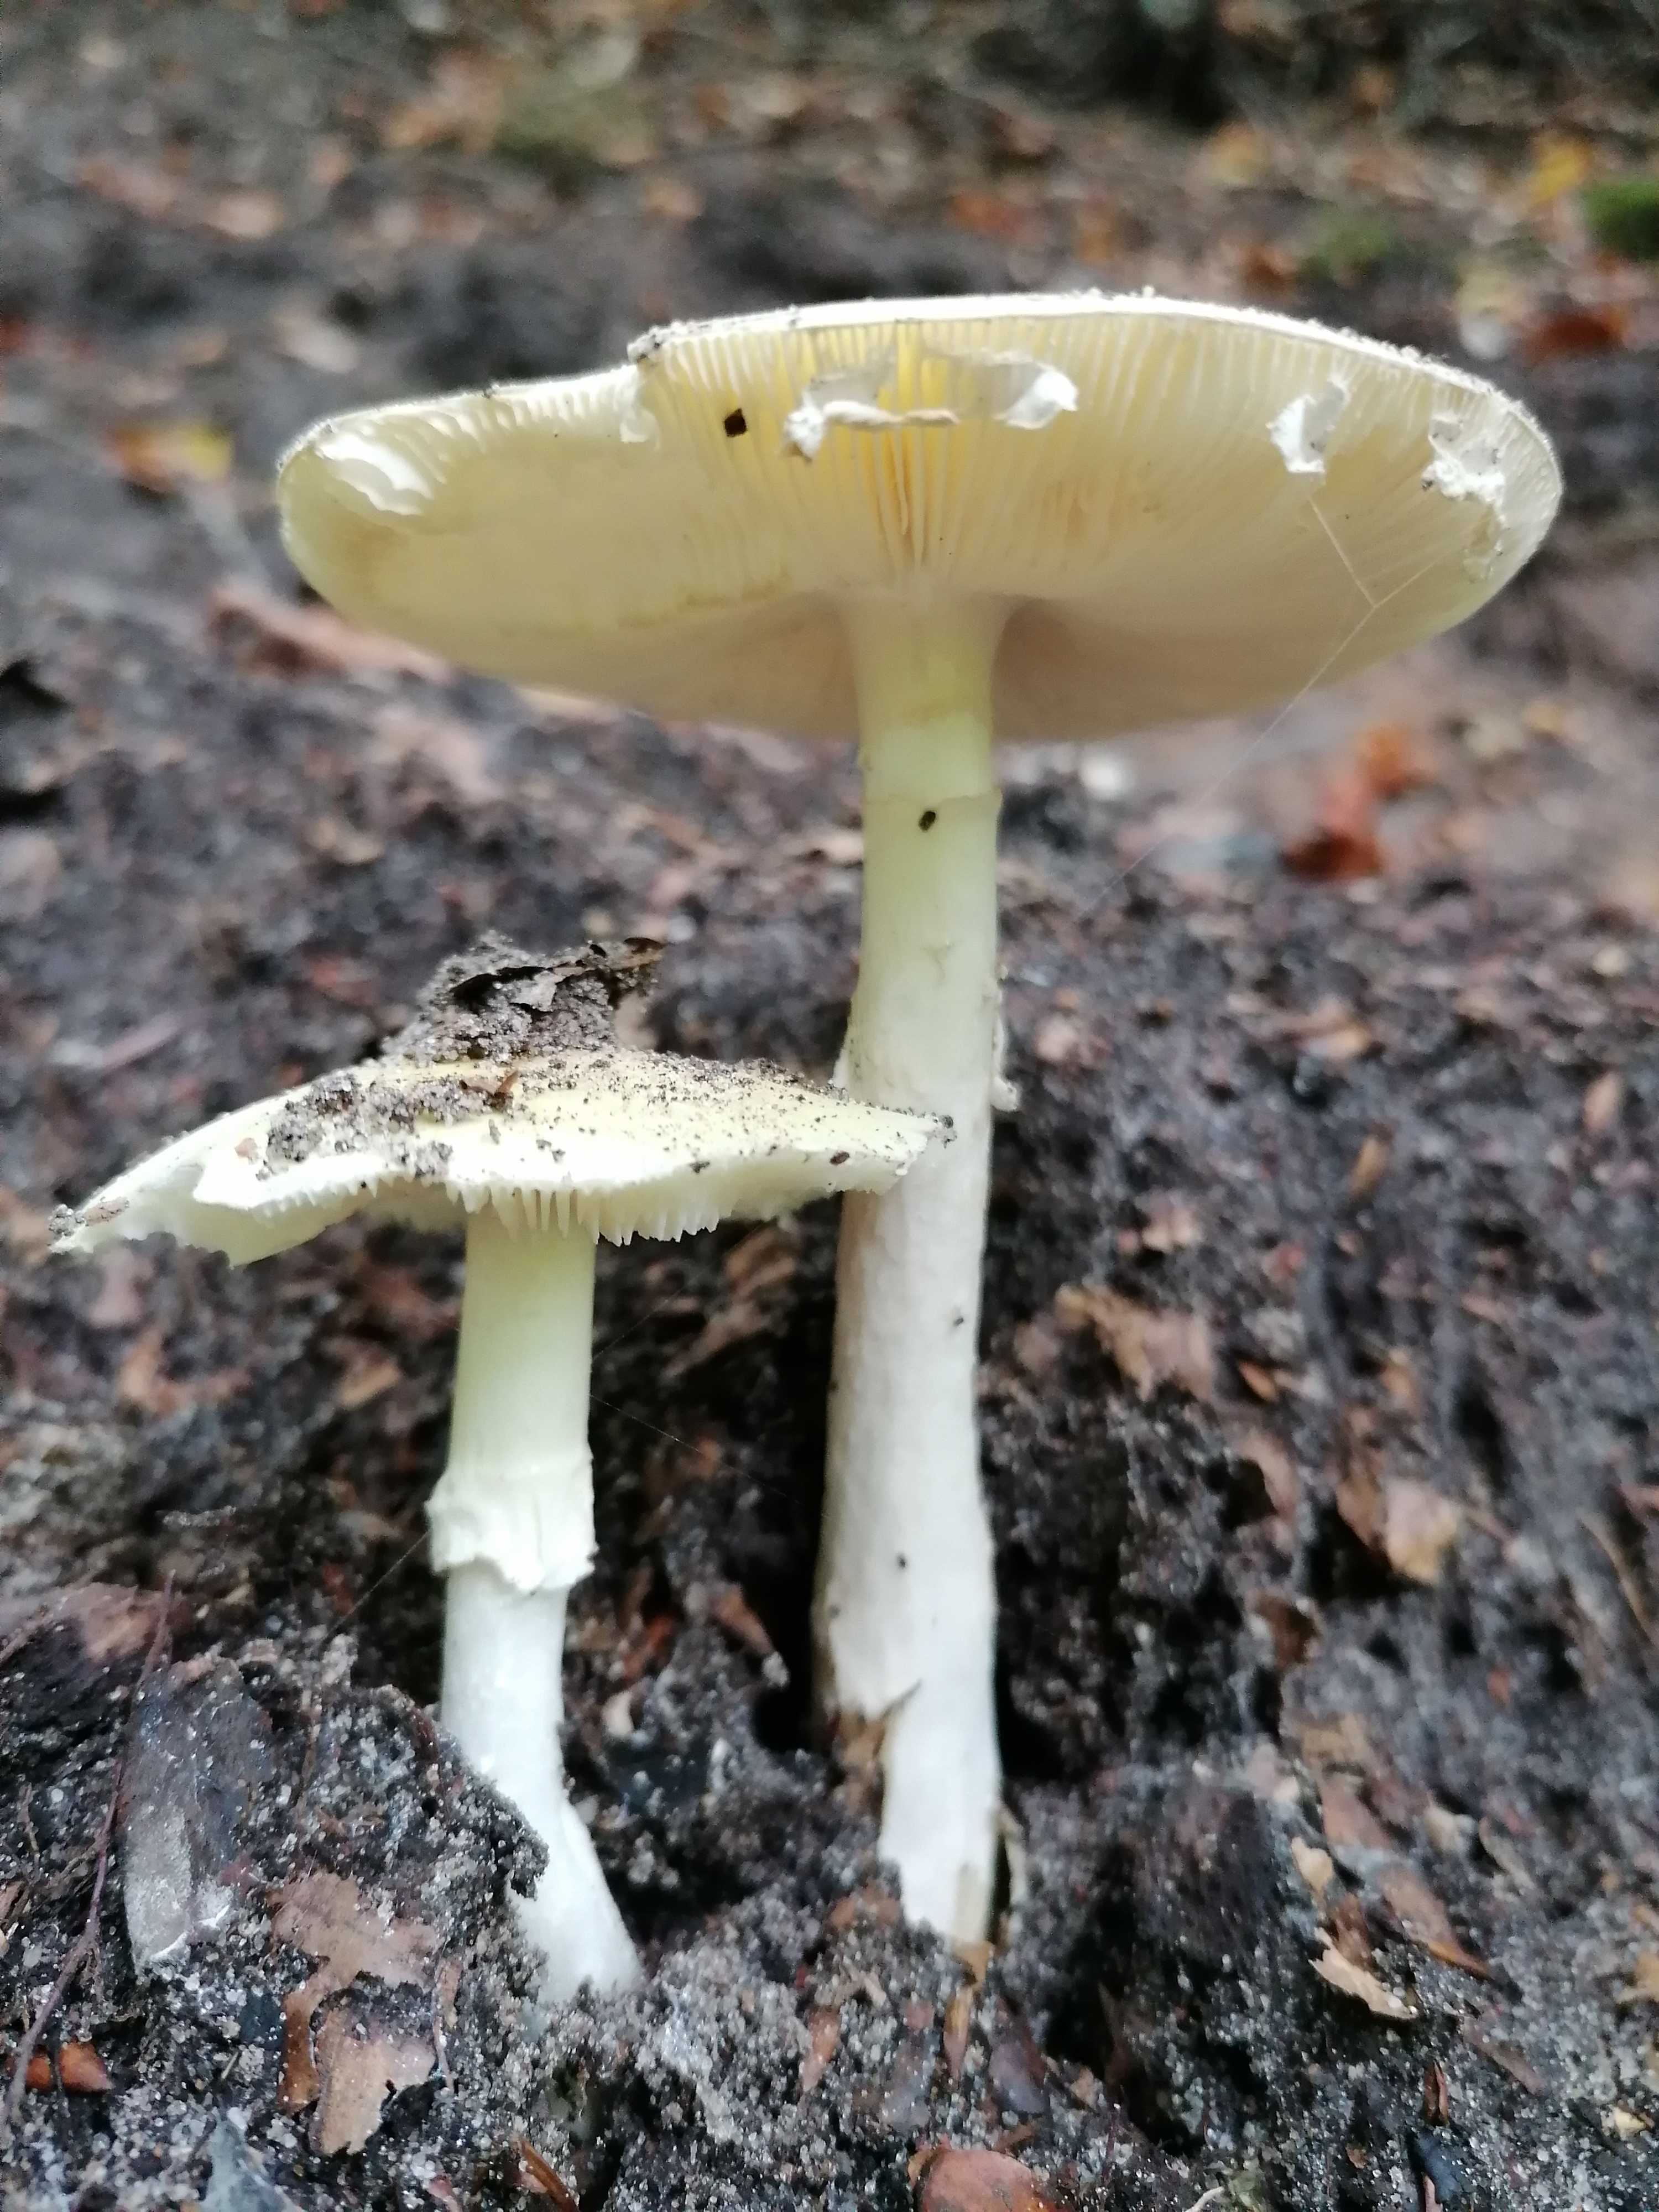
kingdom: Fungi
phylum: Basidiomycota
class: Agaricomycetes
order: Agaricales
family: Amanitaceae
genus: Amanita
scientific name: Amanita phalloides
